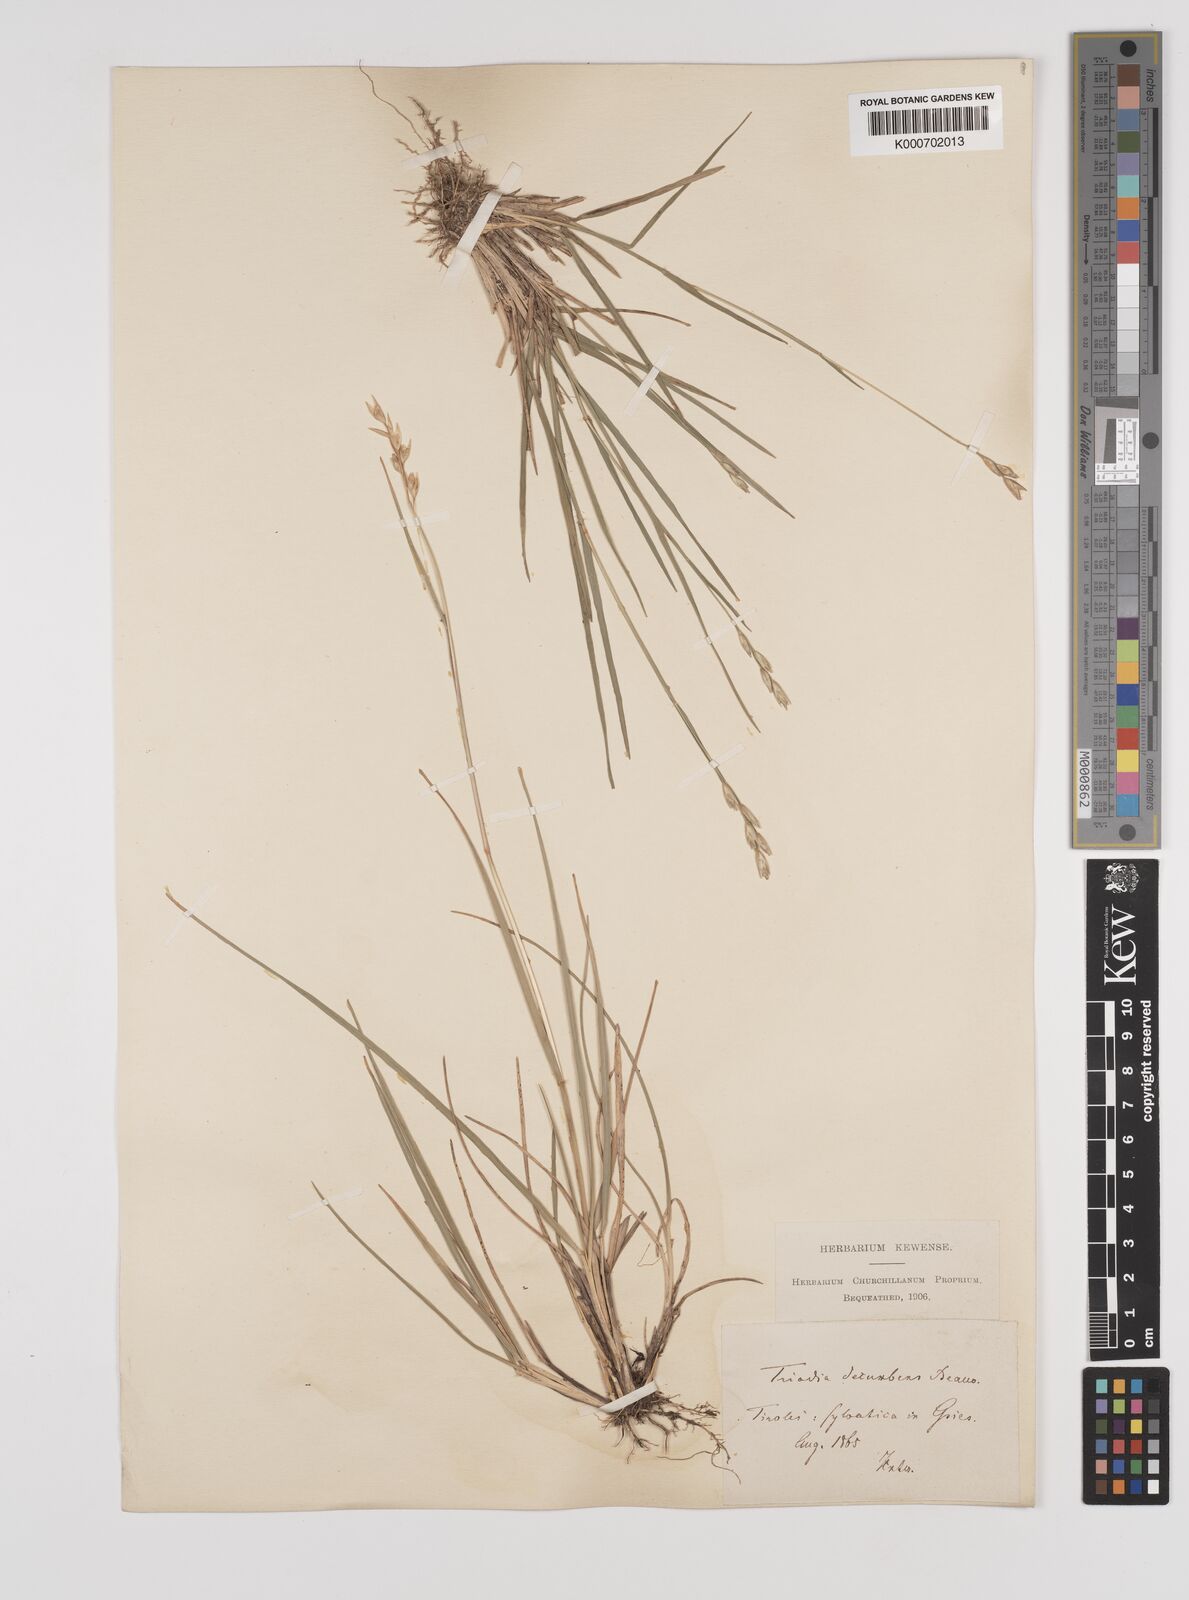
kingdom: Plantae
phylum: Tracheophyta
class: Liliopsida
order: Poales
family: Poaceae
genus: Danthonia
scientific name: Danthonia decumbens
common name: Common heathgrass
